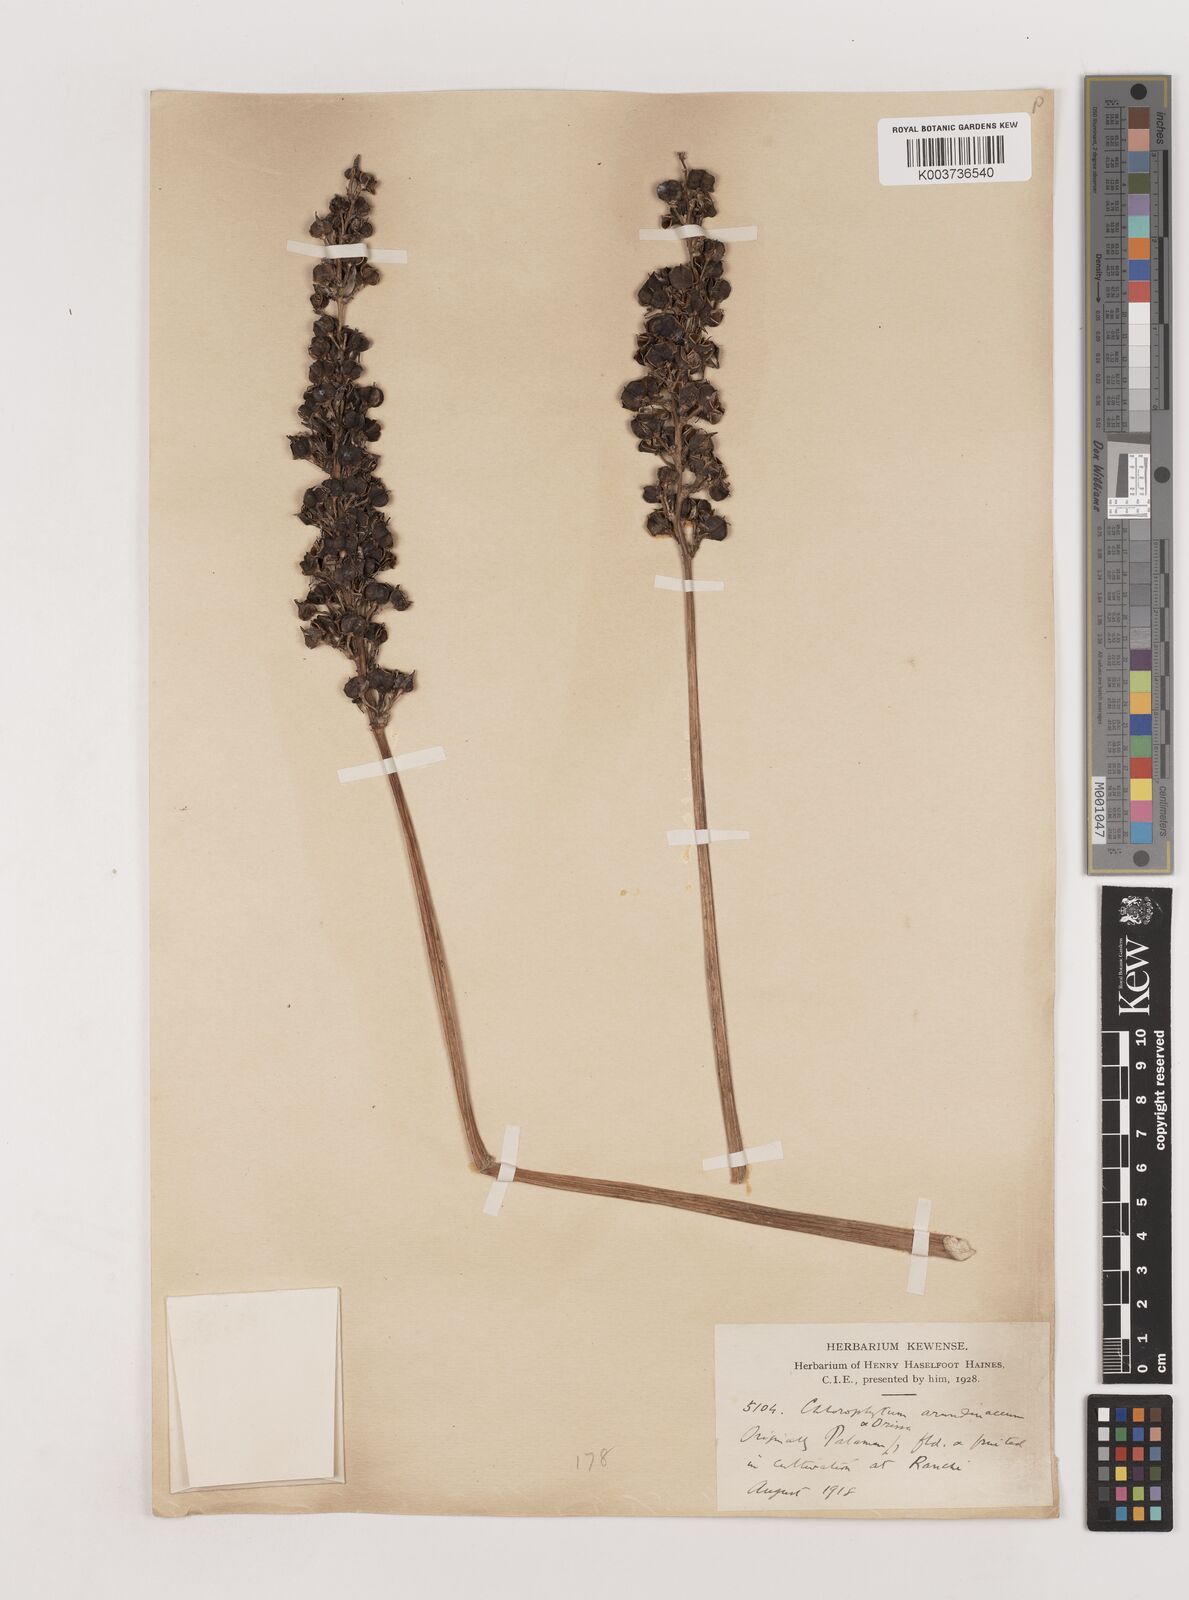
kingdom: Plantae
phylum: Tracheophyta
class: Liliopsida
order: Asparagales
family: Asparagaceae
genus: Chlorophytum
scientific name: Chlorophytum arundinaceum
